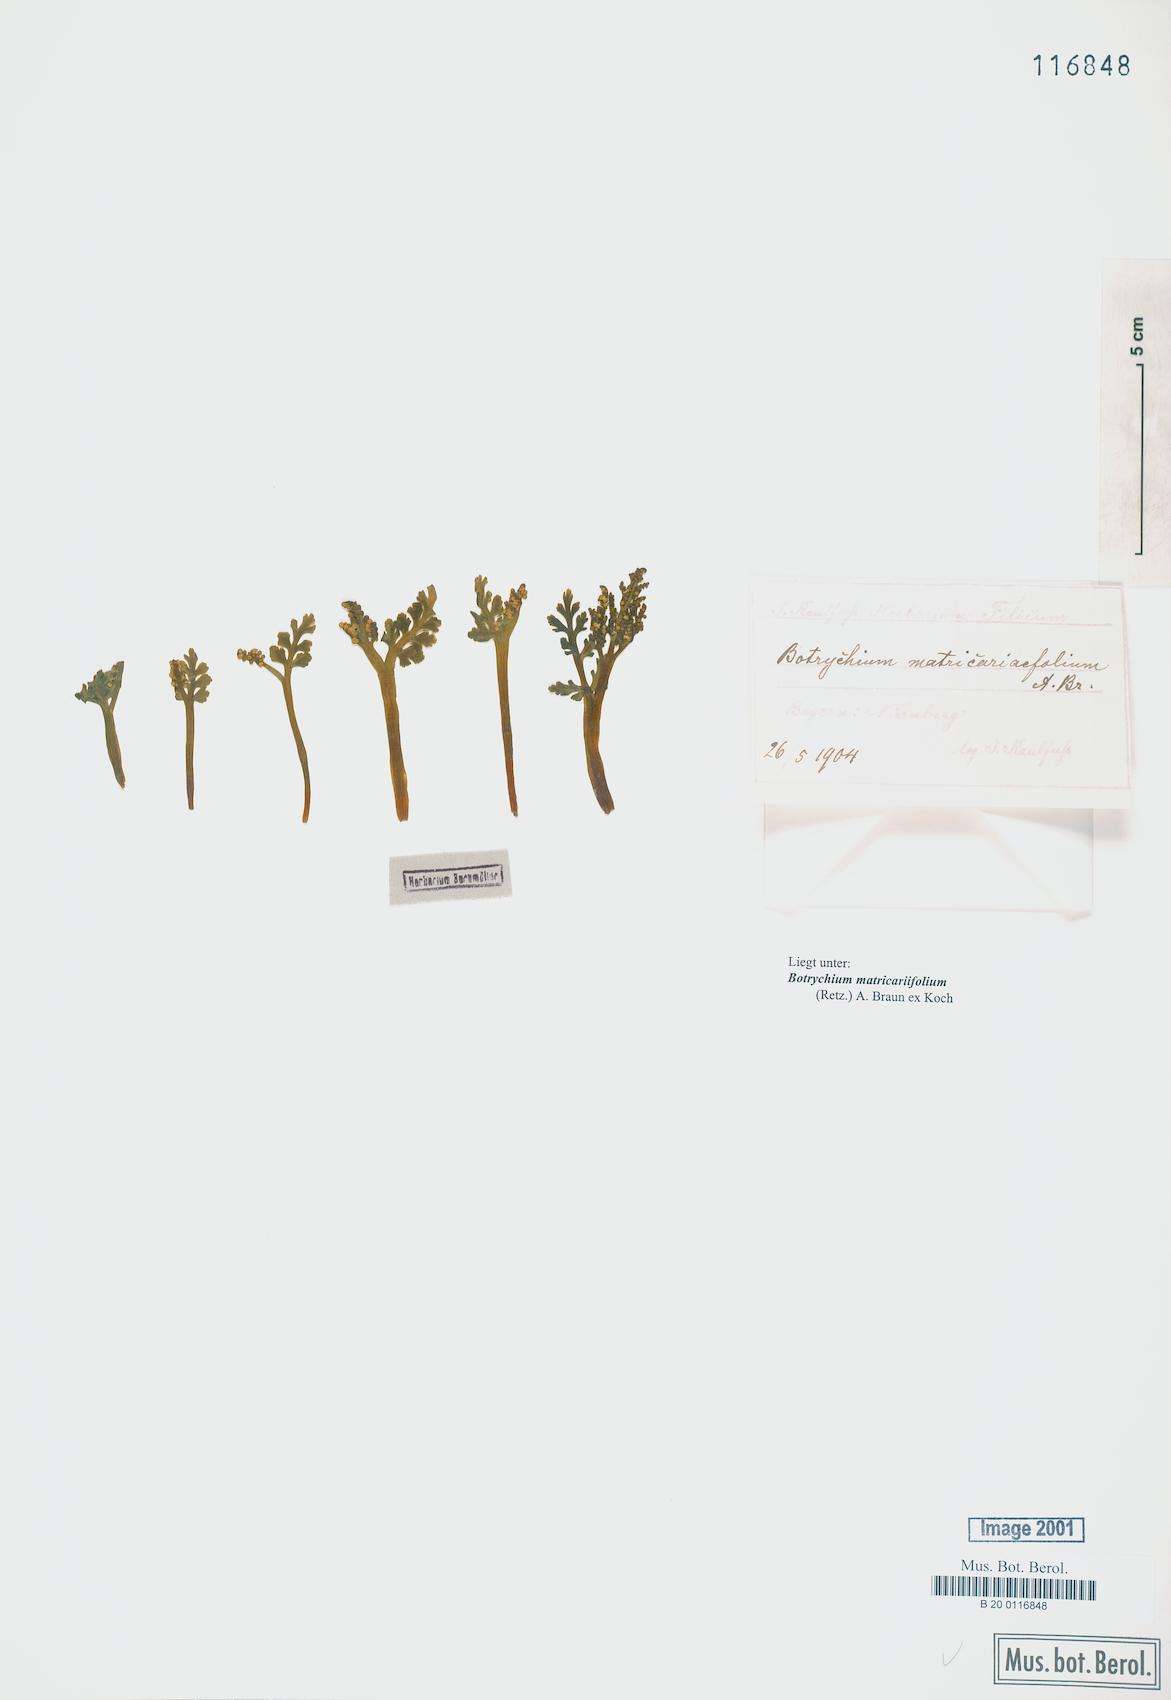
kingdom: Plantae
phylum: Tracheophyta
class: Polypodiopsida
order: Ophioglossales
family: Ophioglossaceae
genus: Botrychium
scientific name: Botrychium matricariifolium
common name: Branched moonwort
